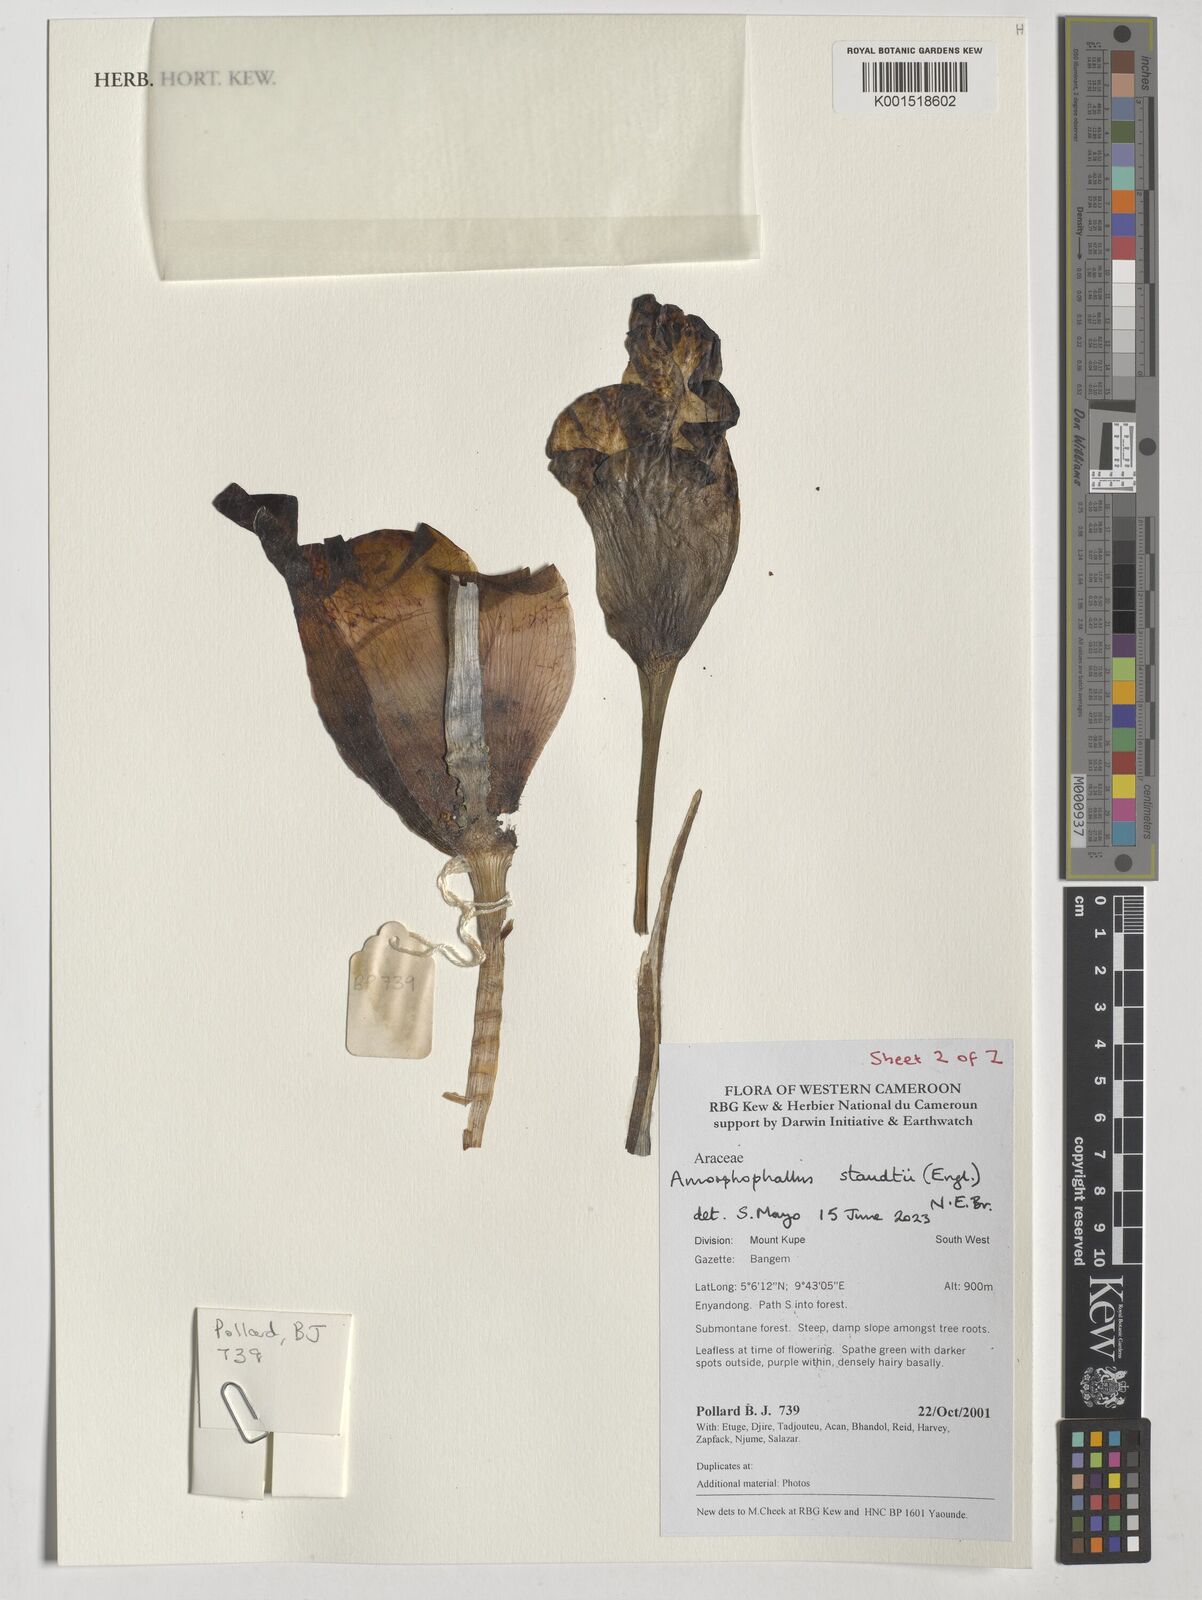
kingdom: Plantae
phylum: Tracheophyta
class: Liliopsida
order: Alismatales
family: Araceae
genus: Amorphophallus
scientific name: Amorphophallus staudtii
